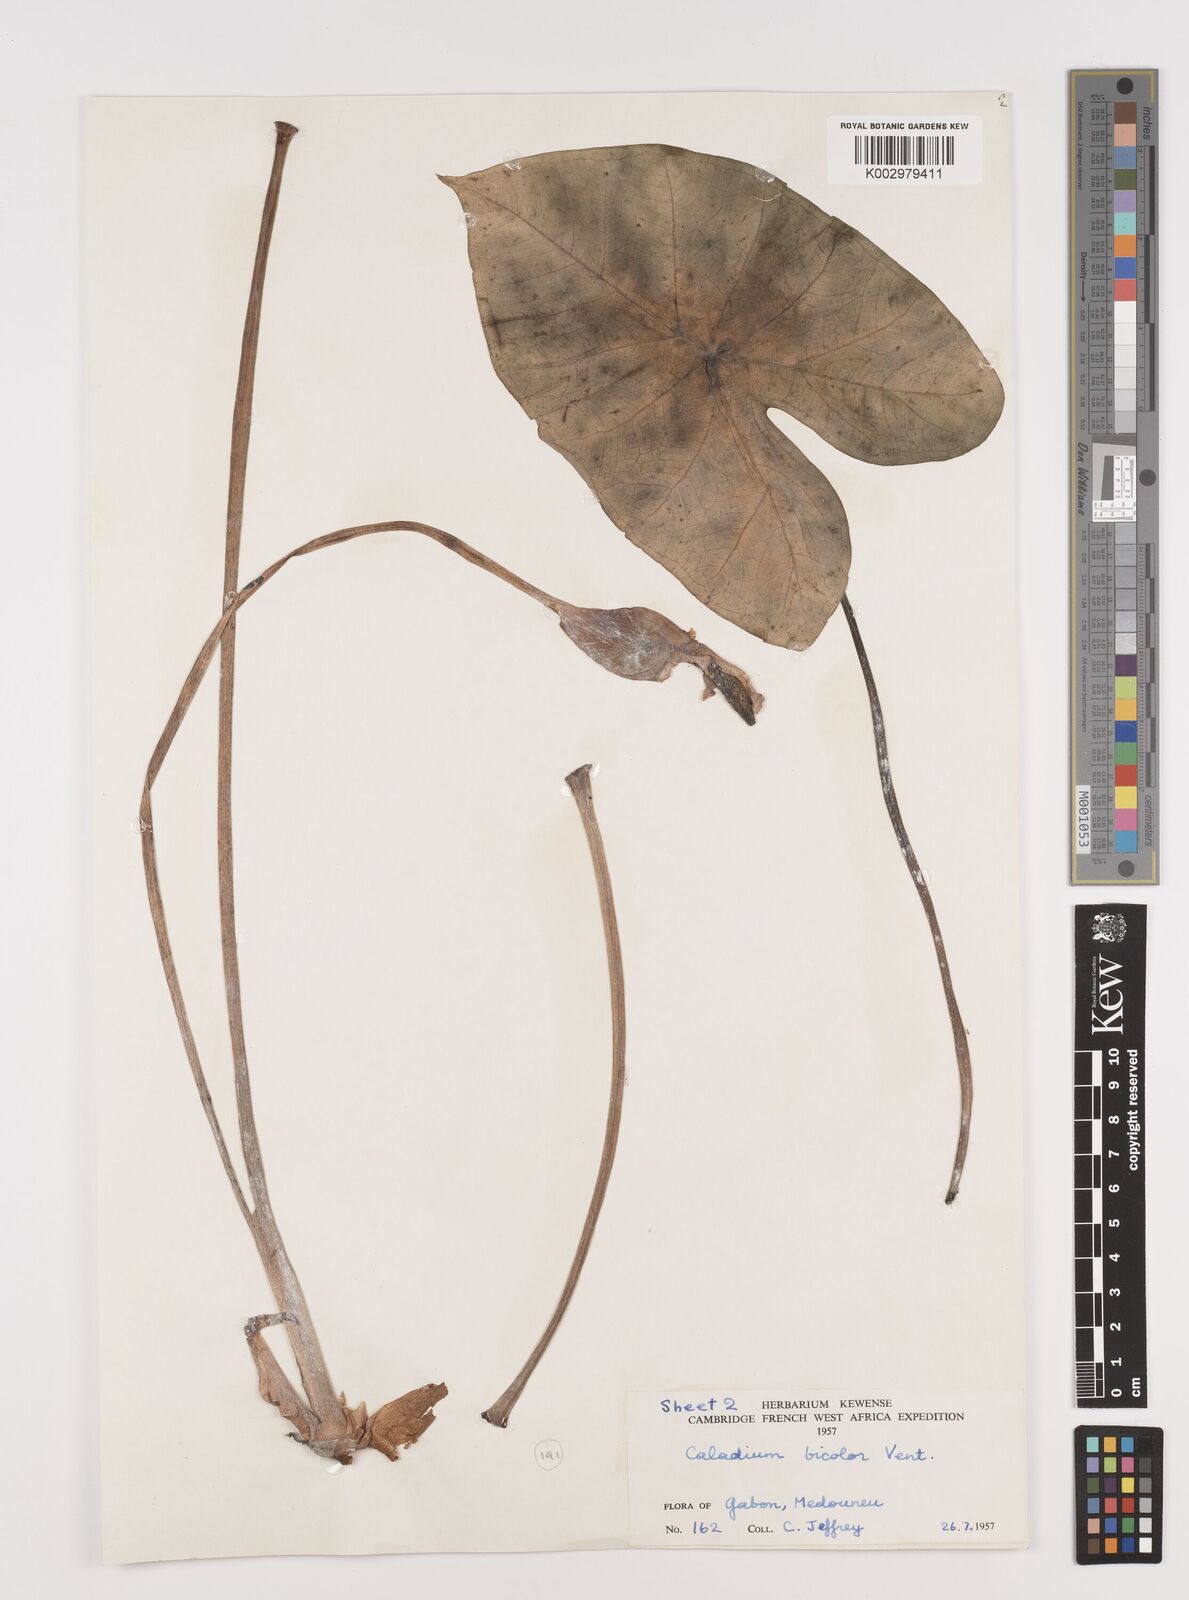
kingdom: Plantae
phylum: Tracheophyta
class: Liliopsida
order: Alismatales
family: Araceae
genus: Caladium
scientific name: Caladium bicolor
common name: Artist's pallet
